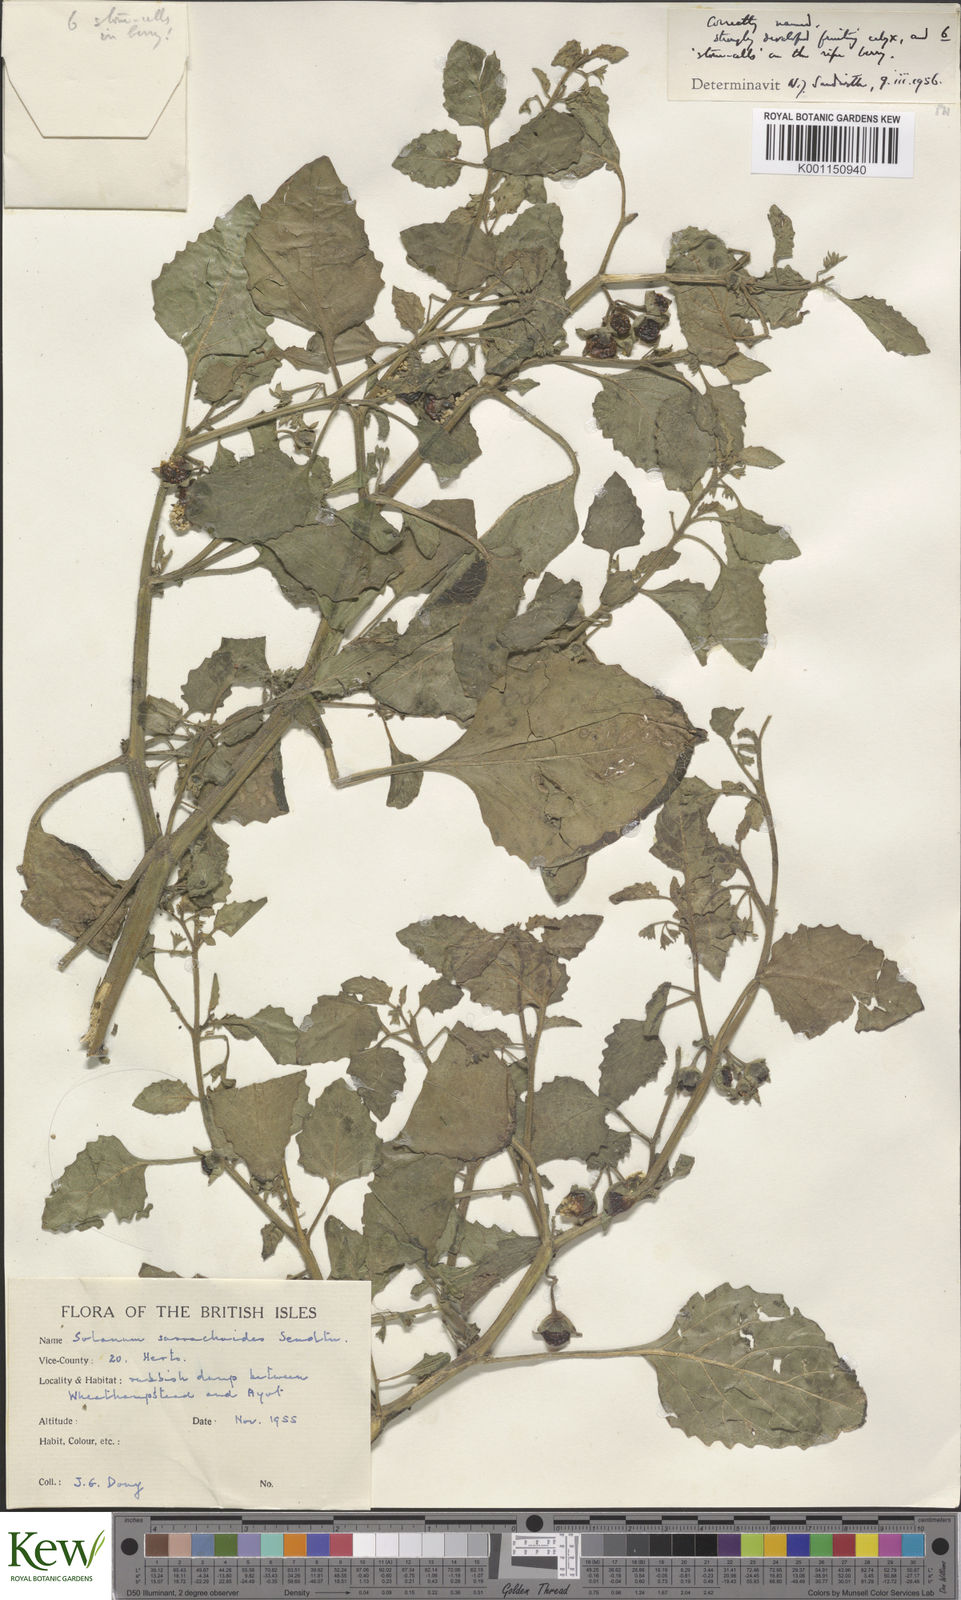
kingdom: Plantae
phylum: Tracheophyta
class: Magnoliopsida
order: Solanales
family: Solanaceae
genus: Solanum
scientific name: Solanum sarrachoides
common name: Leafy-fruited nightshade
